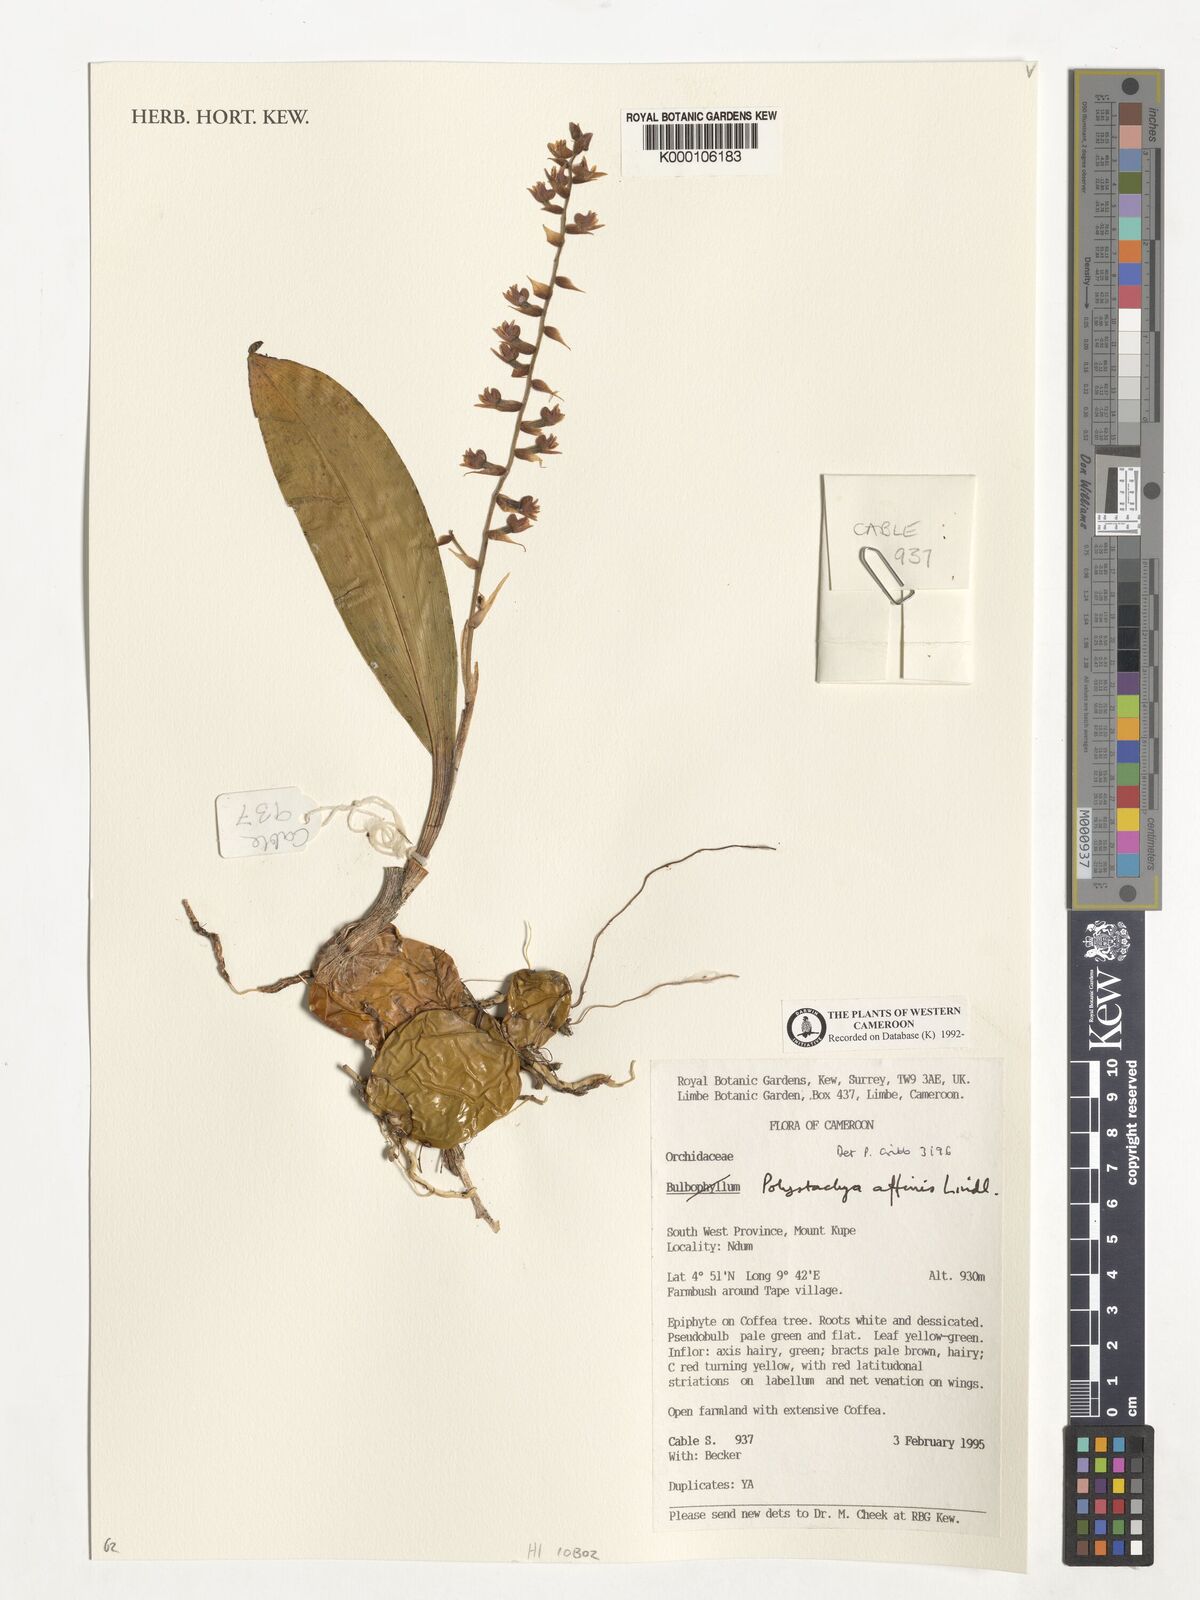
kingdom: Plantae
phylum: Tracheophyta
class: Liliopsida
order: Asparagales
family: Orchidaceae
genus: Polystachya
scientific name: Polystachya affinis
